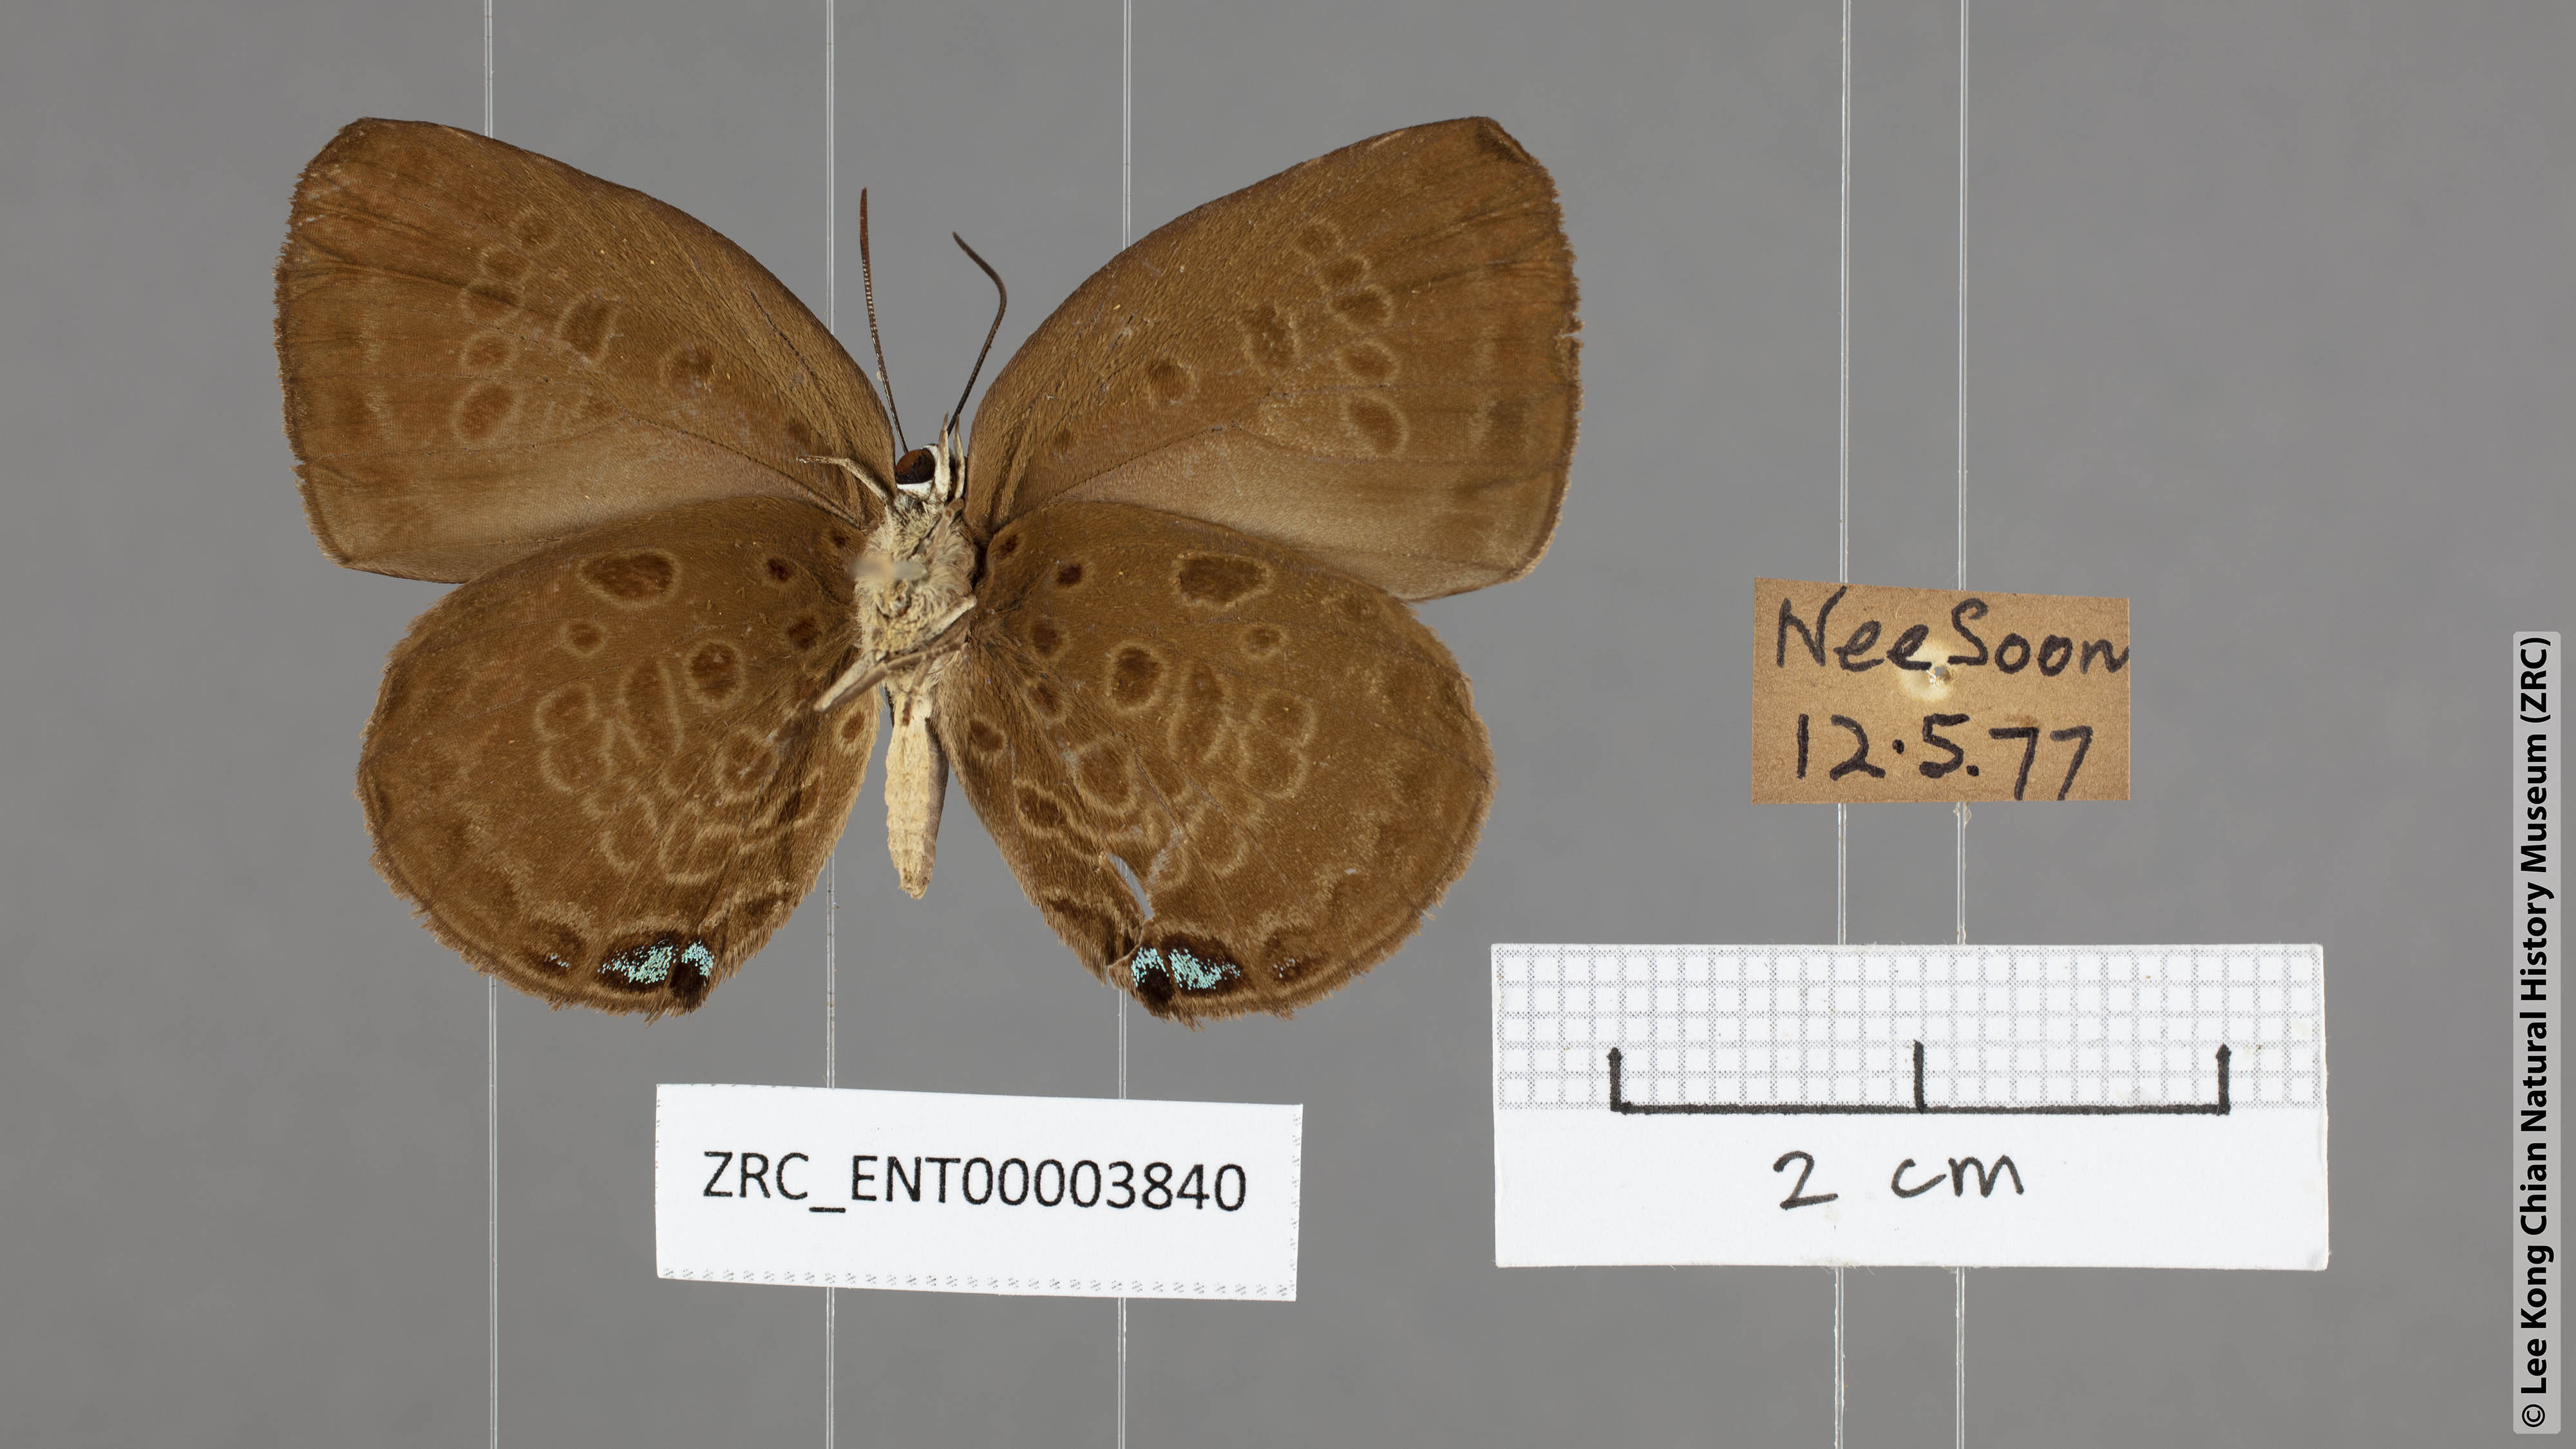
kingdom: Animalia
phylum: Arthropoda
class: Insecta
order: Lepidoptera
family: Lycaenidae
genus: Arhopala
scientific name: Arhopala amphimuta
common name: Broad yellow oakblue
